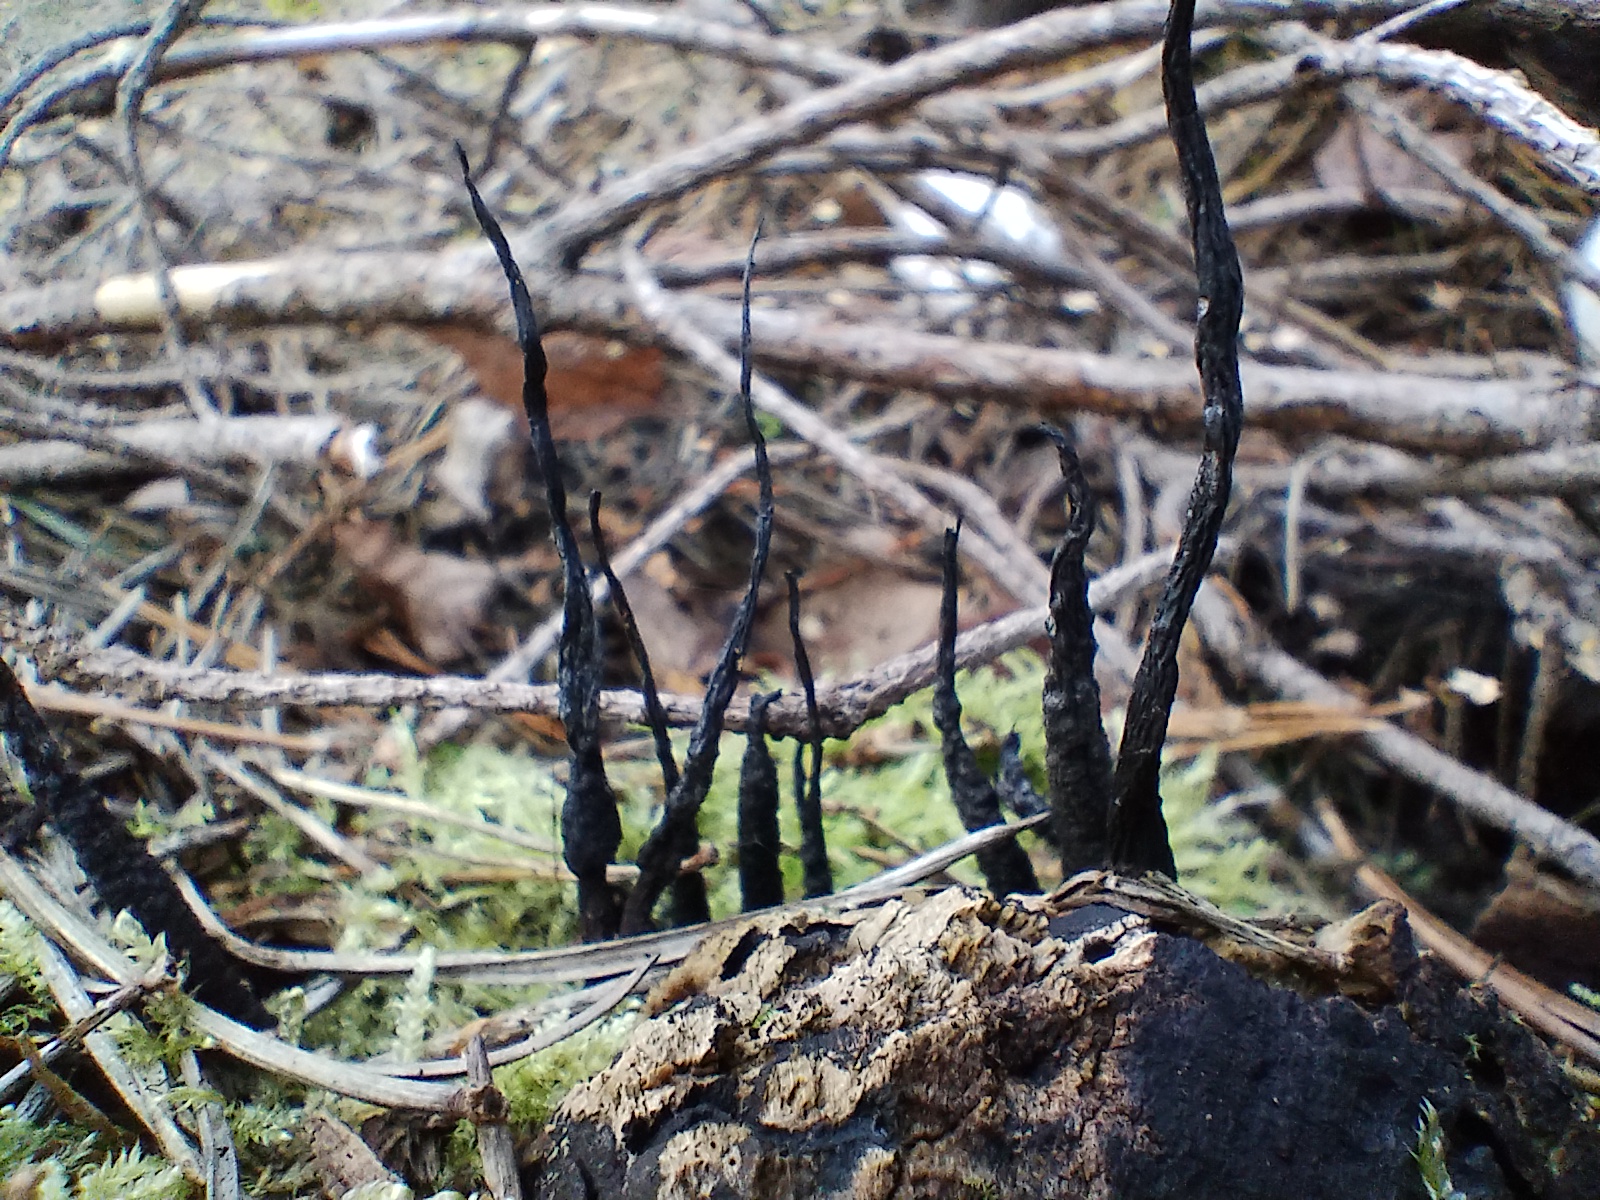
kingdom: Fungi
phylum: Ascomycota
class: Sordariomycetes
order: Xylariales
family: Xylariaceae
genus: Xylaria
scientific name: Xylaria hypoxylon
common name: grenet stødsvamp
